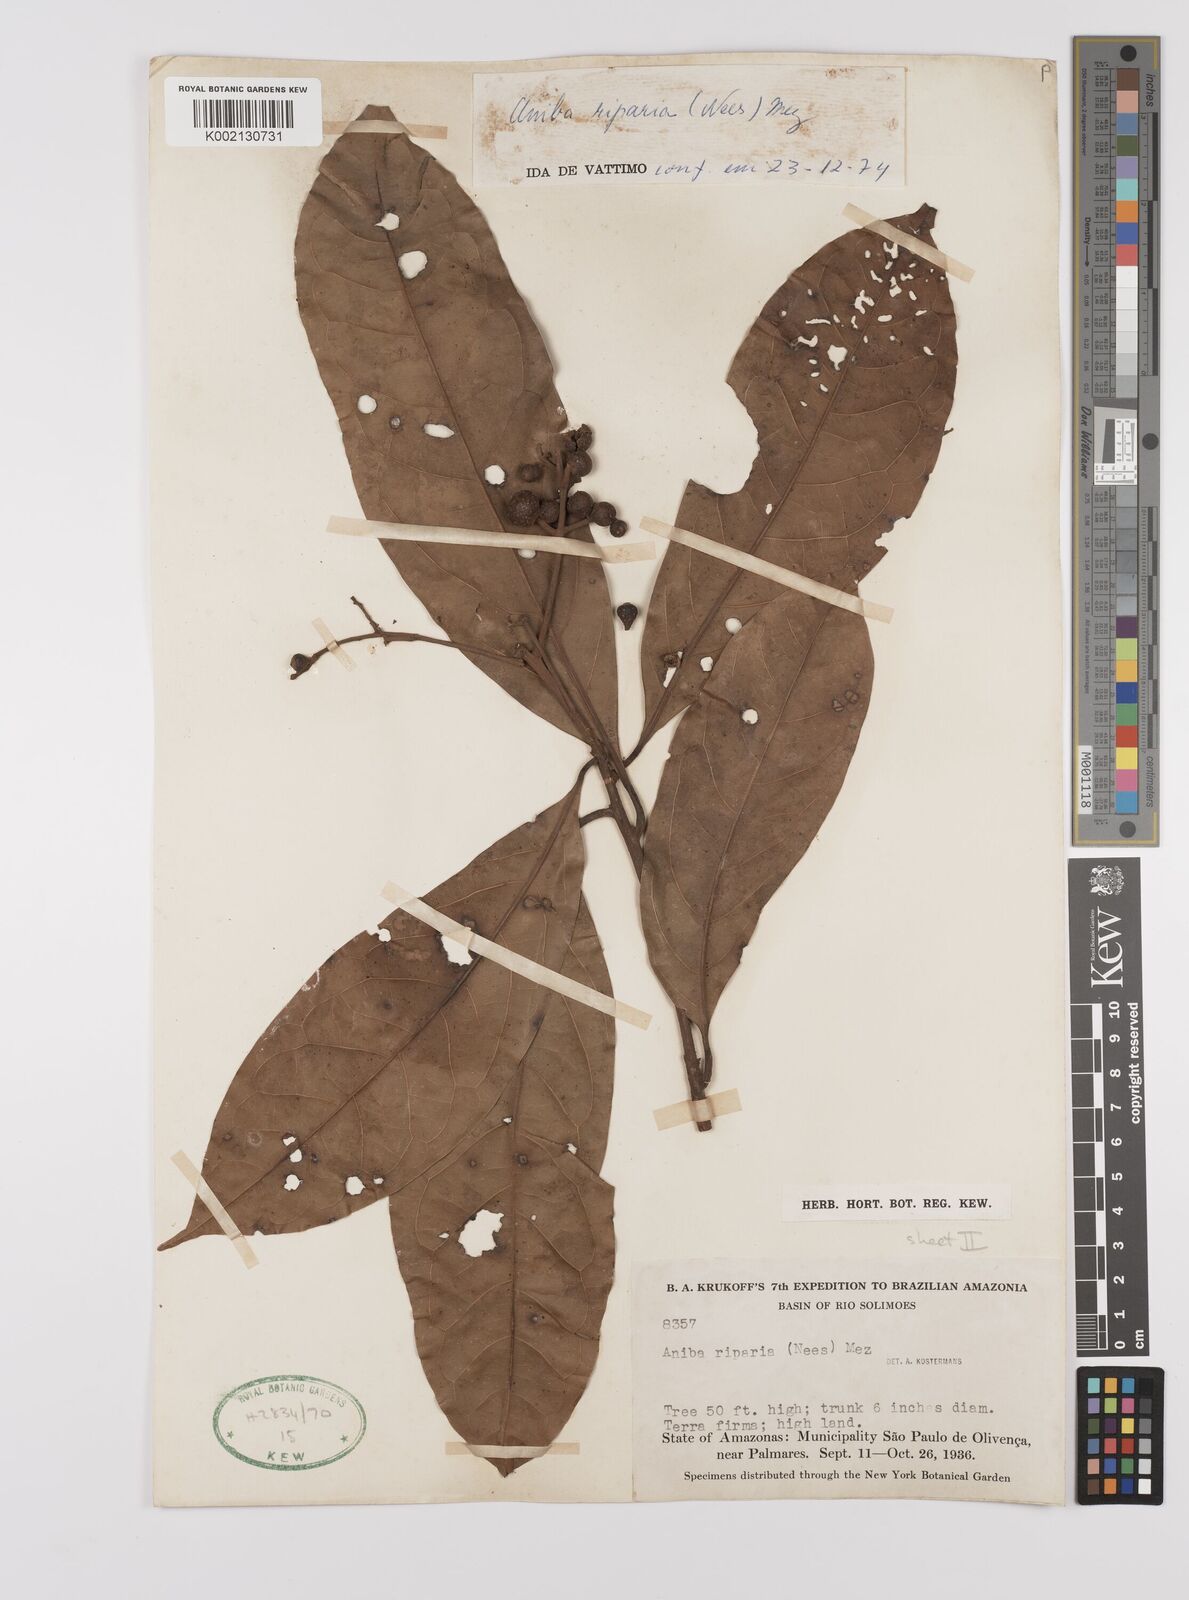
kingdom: Plantae
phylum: Tracheophyta
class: Magnoliopsida
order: Laurales
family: Lauraceae
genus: Aniba
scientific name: Aniba riparia
